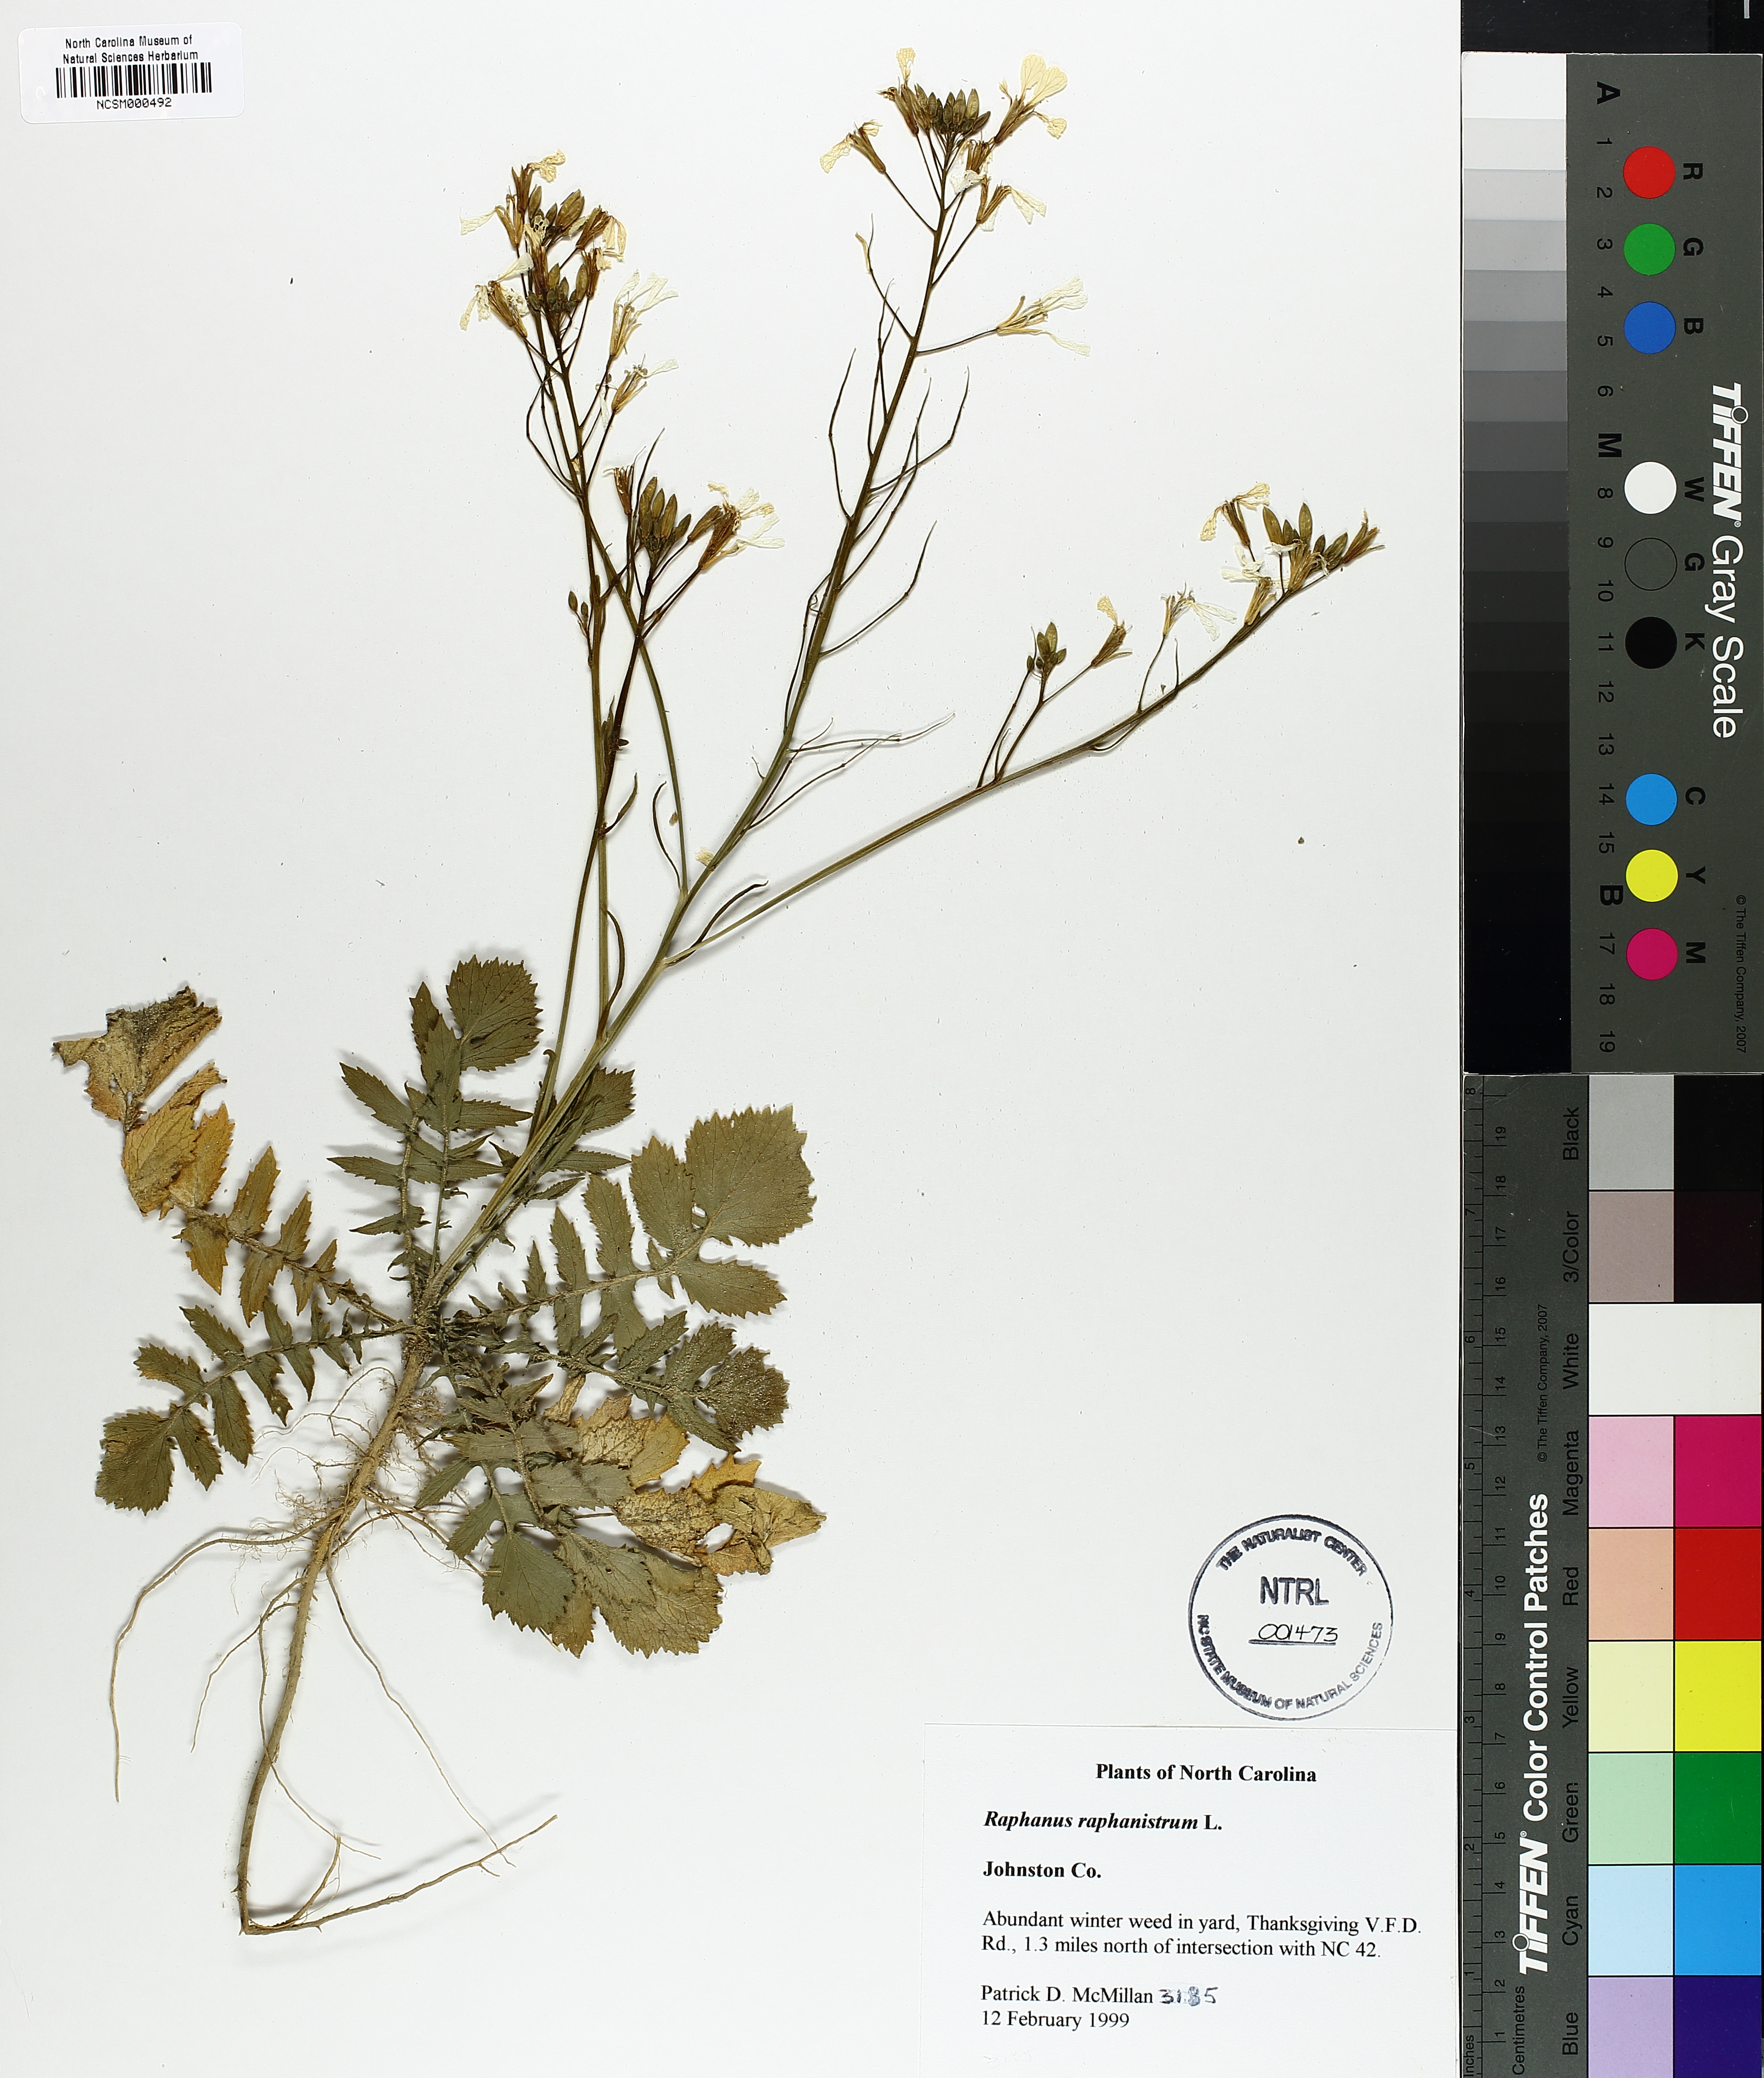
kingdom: Plantae
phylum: Tracheophyta
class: Magnoliopsida
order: Brassicales
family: Brassicaceae
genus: Raphanus
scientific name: Raphanus raphanistrum
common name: Wild radish
